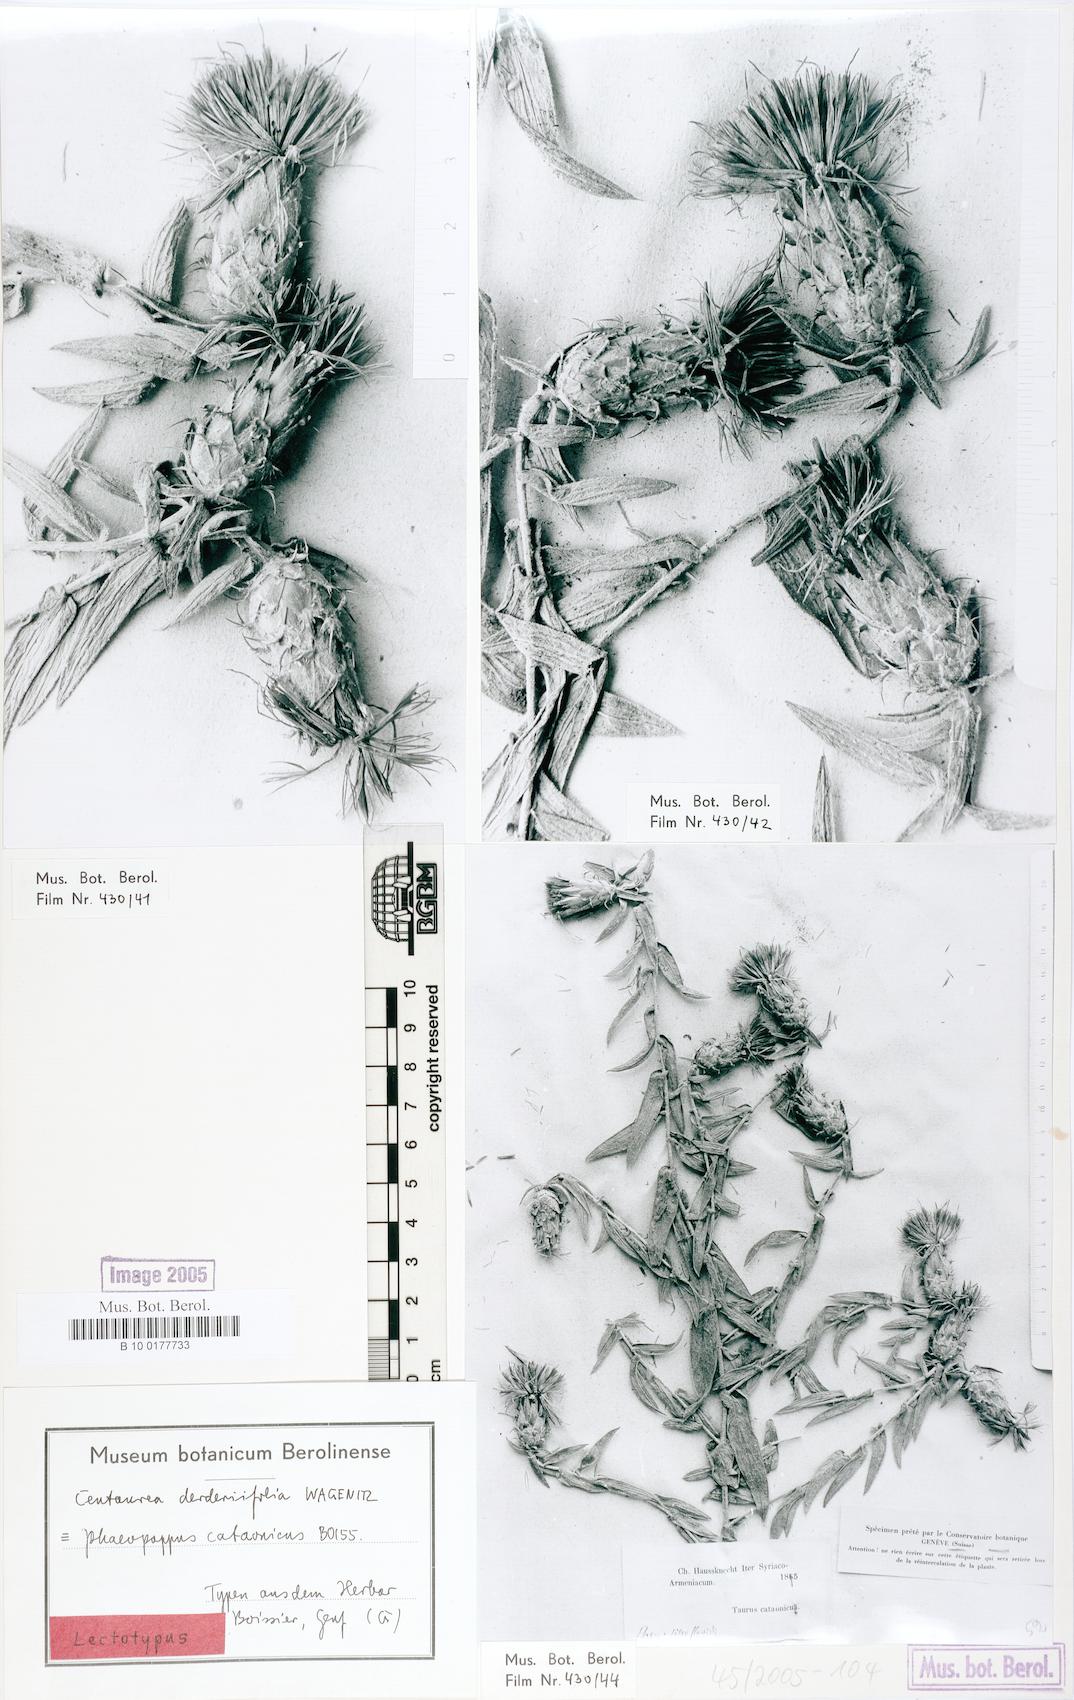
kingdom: Plantae
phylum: Tracheophyta
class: Magnoliopsida
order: Asterales
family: Asteraceae
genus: Centaurea
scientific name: Centaurea derderiifolia
